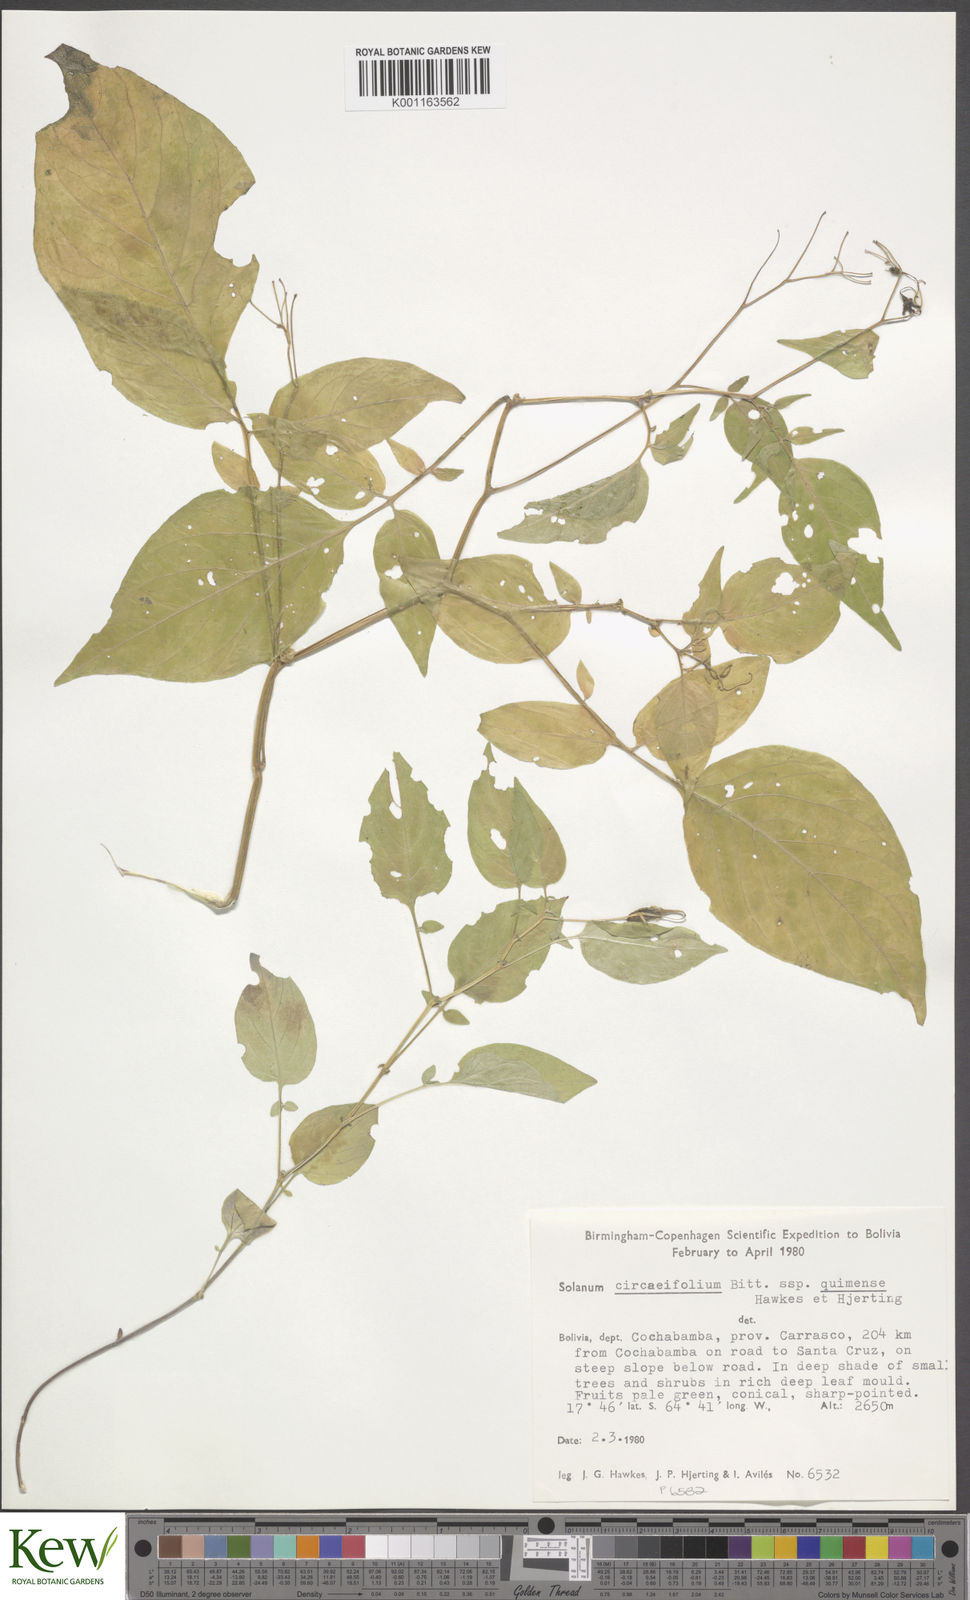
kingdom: Plantae
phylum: Tracheophyta
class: Magnoliopsida
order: Solanales
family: Solanaceae
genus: Solanum
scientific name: Solanum stipuloideum
